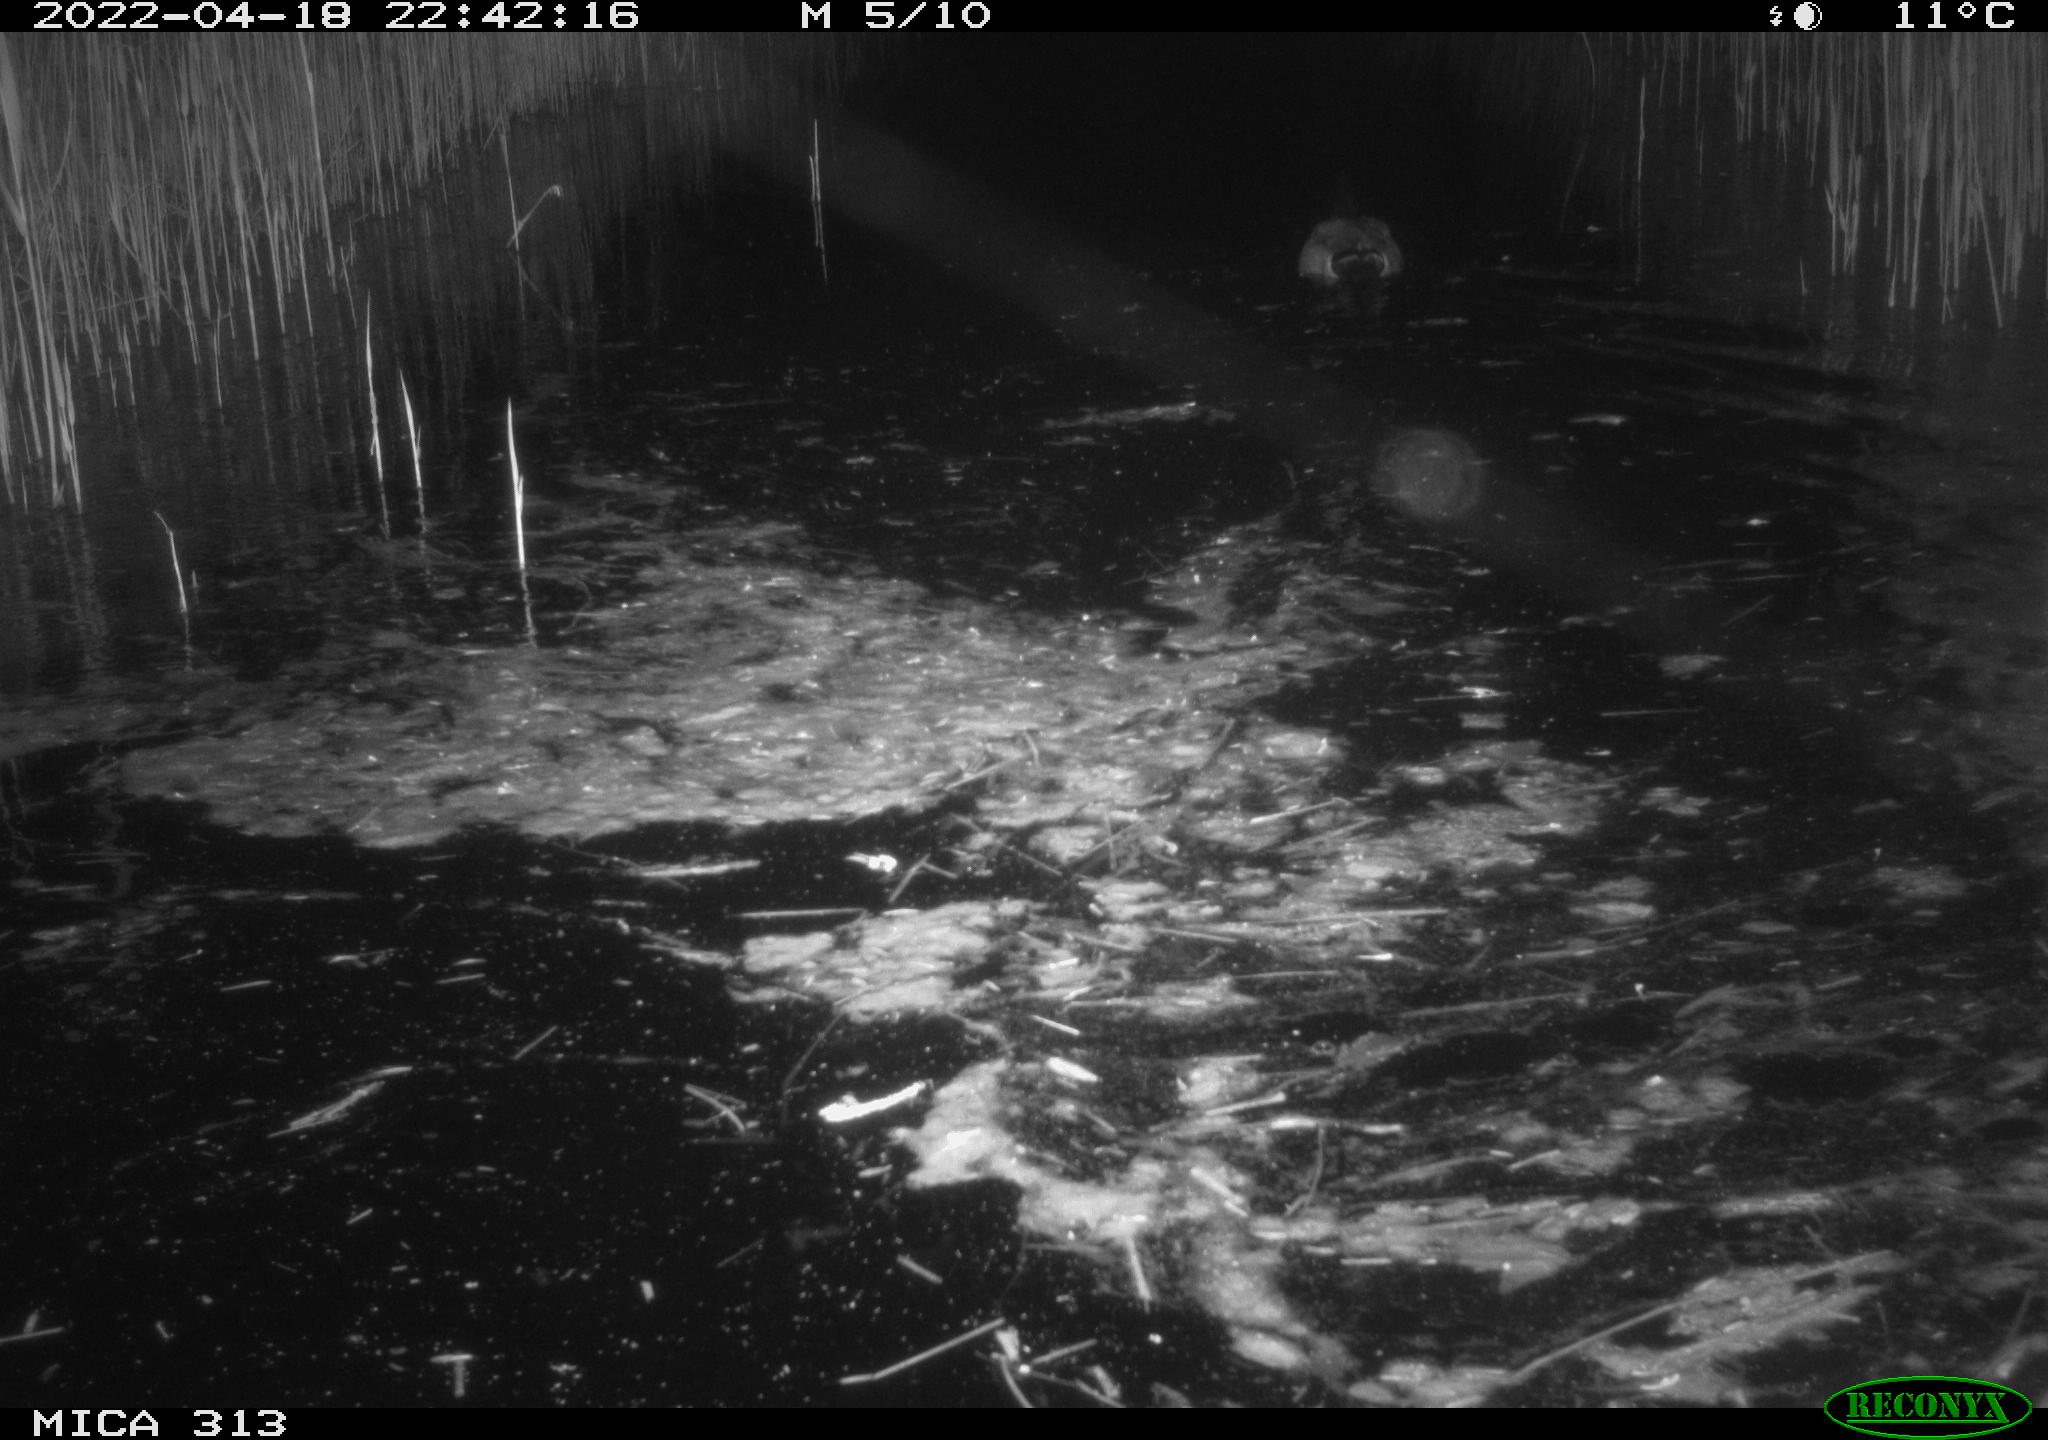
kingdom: Animalia
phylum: Chordata
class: Aves
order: Anseriformes
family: Anatidae
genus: Anas
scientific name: Anas platyrhynchos
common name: Mallard
